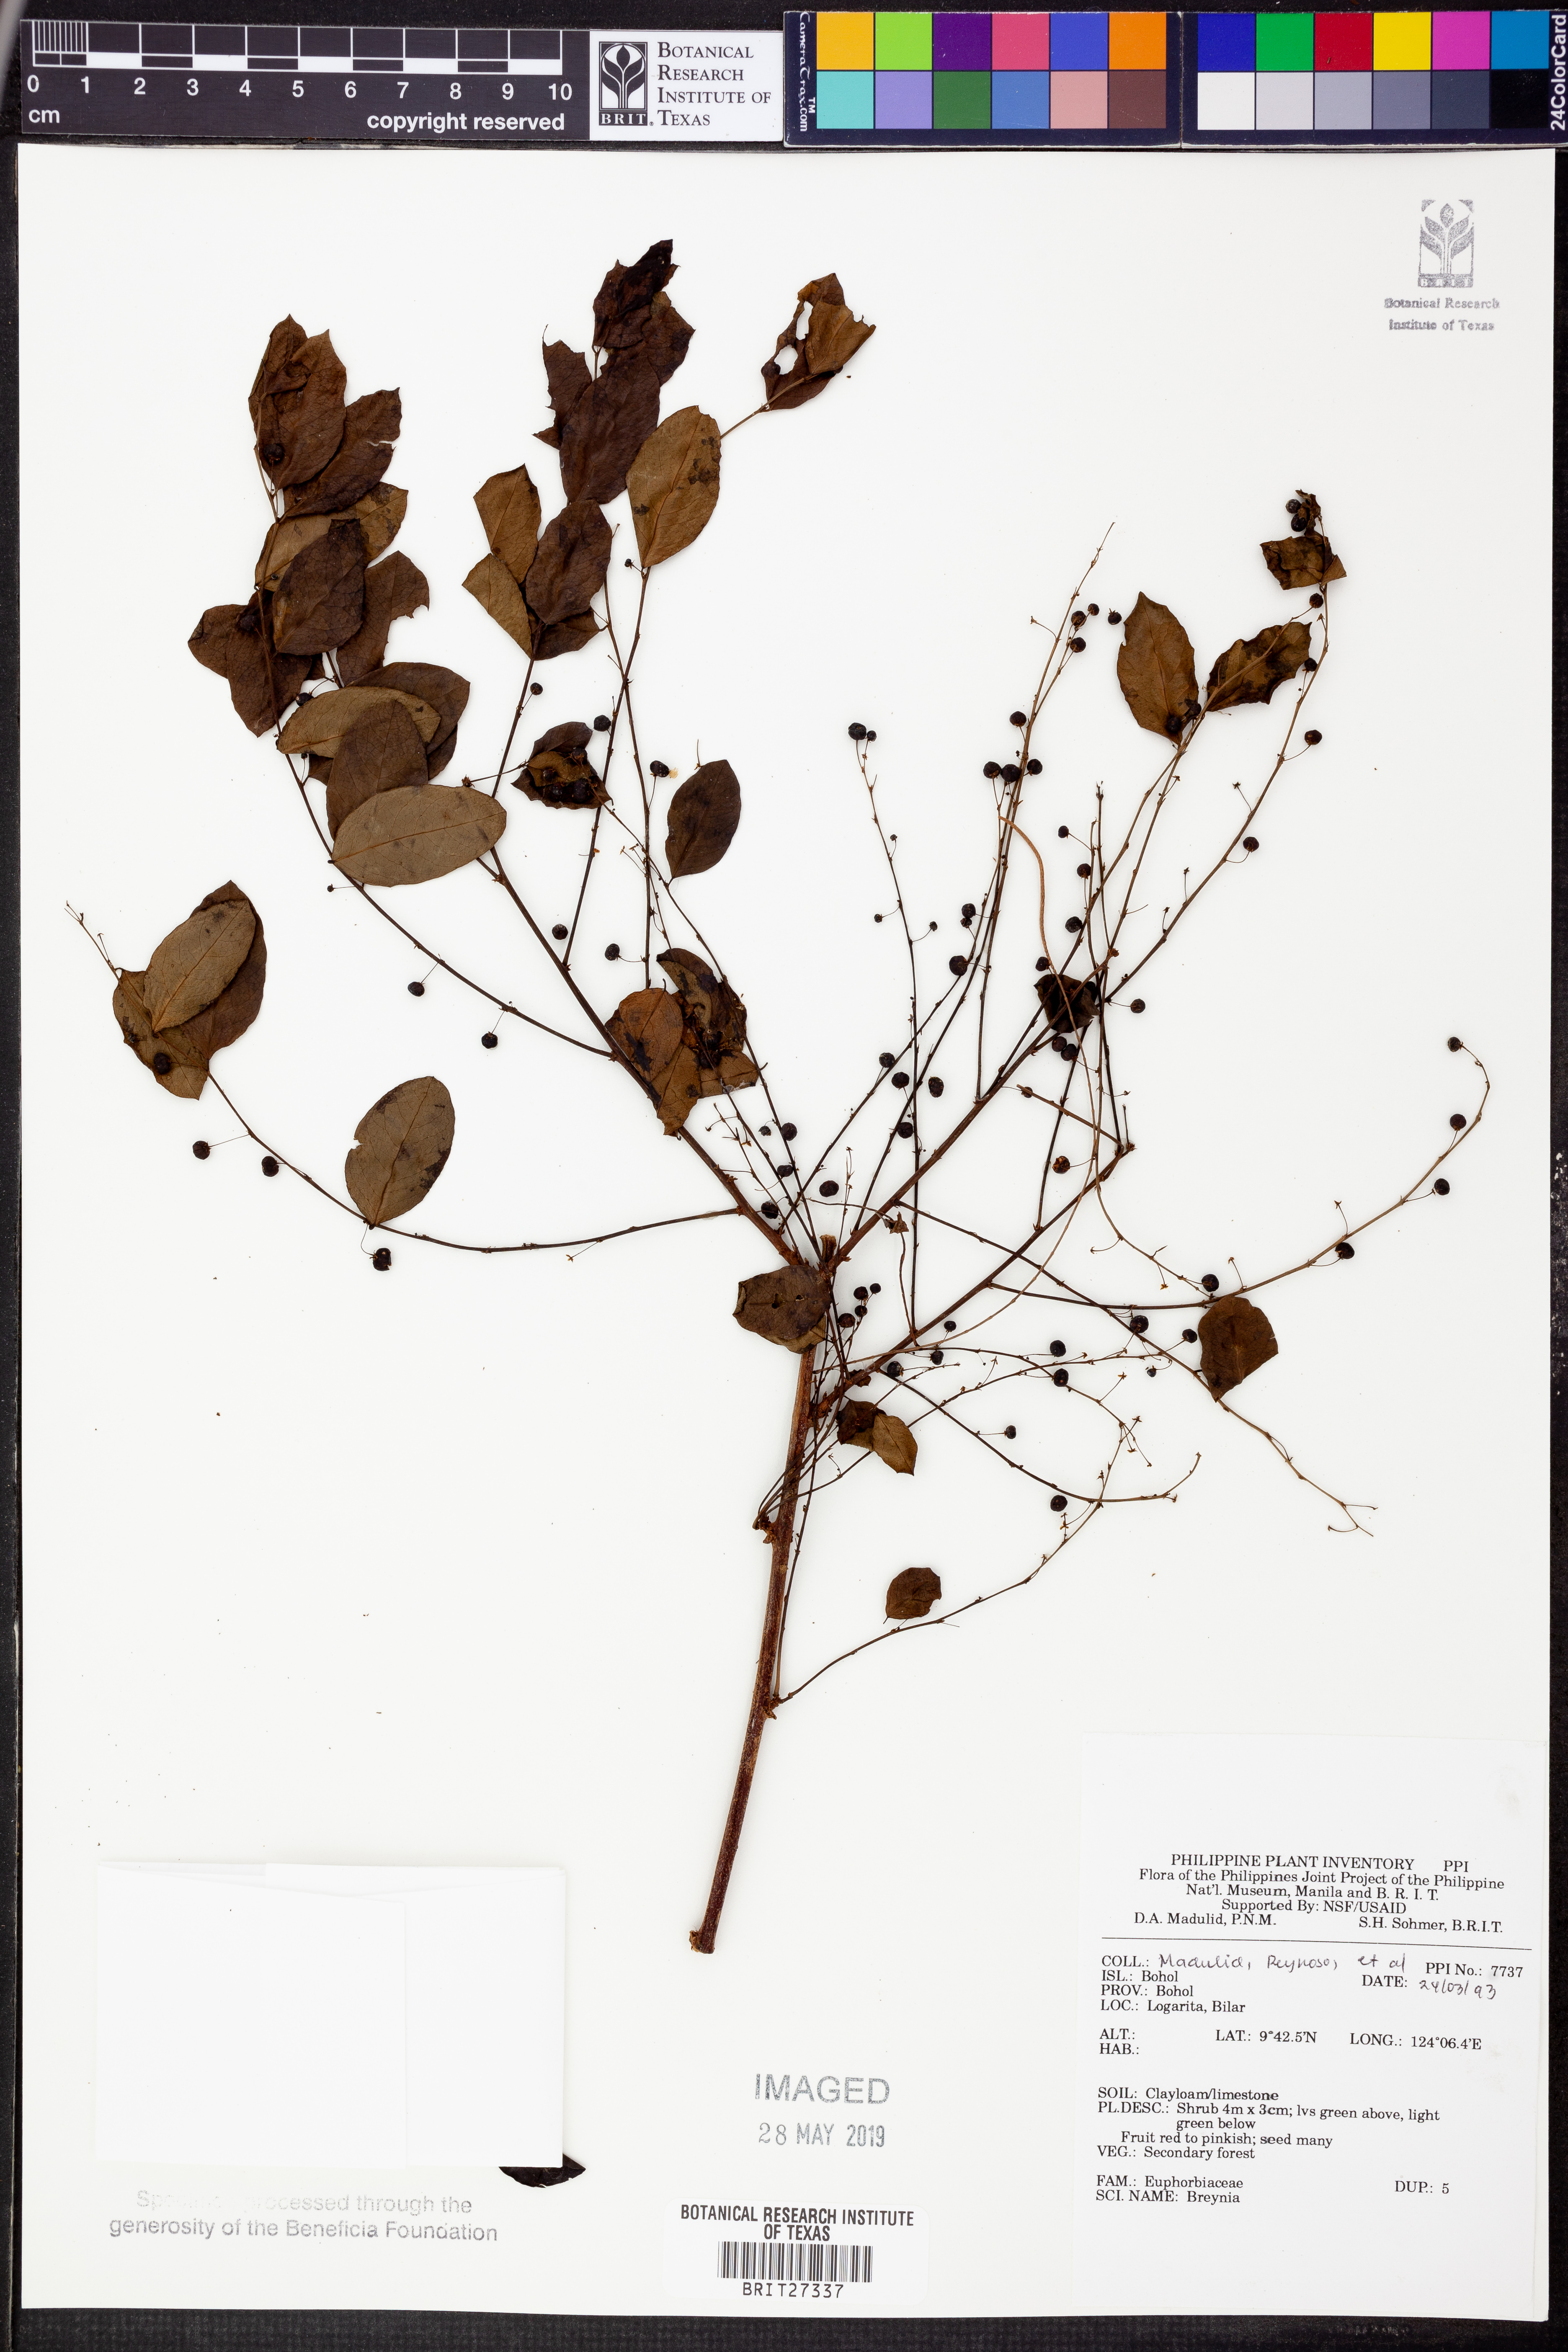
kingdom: Plantae
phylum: Tracheophyta
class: Magnoliopsida
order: Malpighiales
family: Phyllanthaceae
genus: Breynia
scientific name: Breynia
